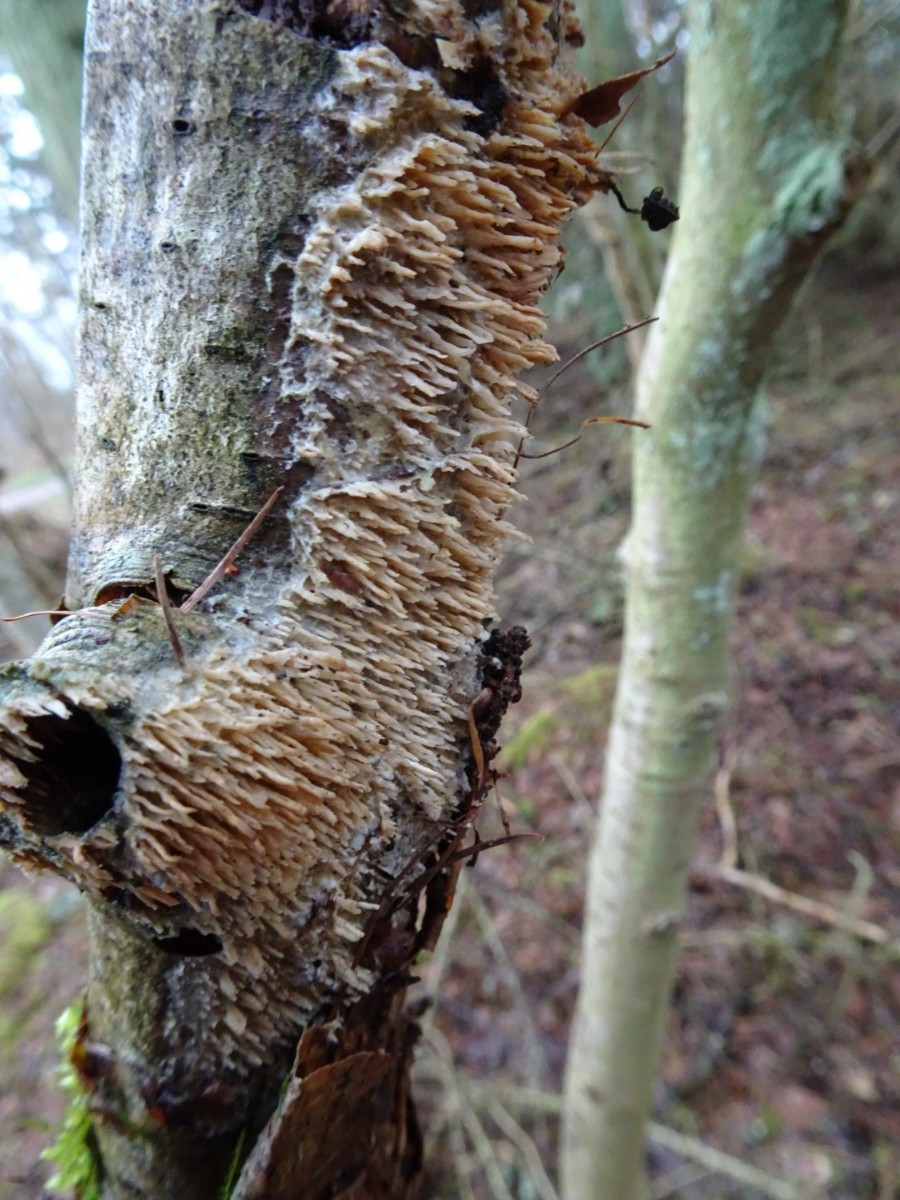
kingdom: Fungi
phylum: Basidiomycota
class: Agaricomycetes
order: Hymenochaetales
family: Schizoporaceae
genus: Xylodon
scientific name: Xylodon radula
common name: grovtandet kalkskind
